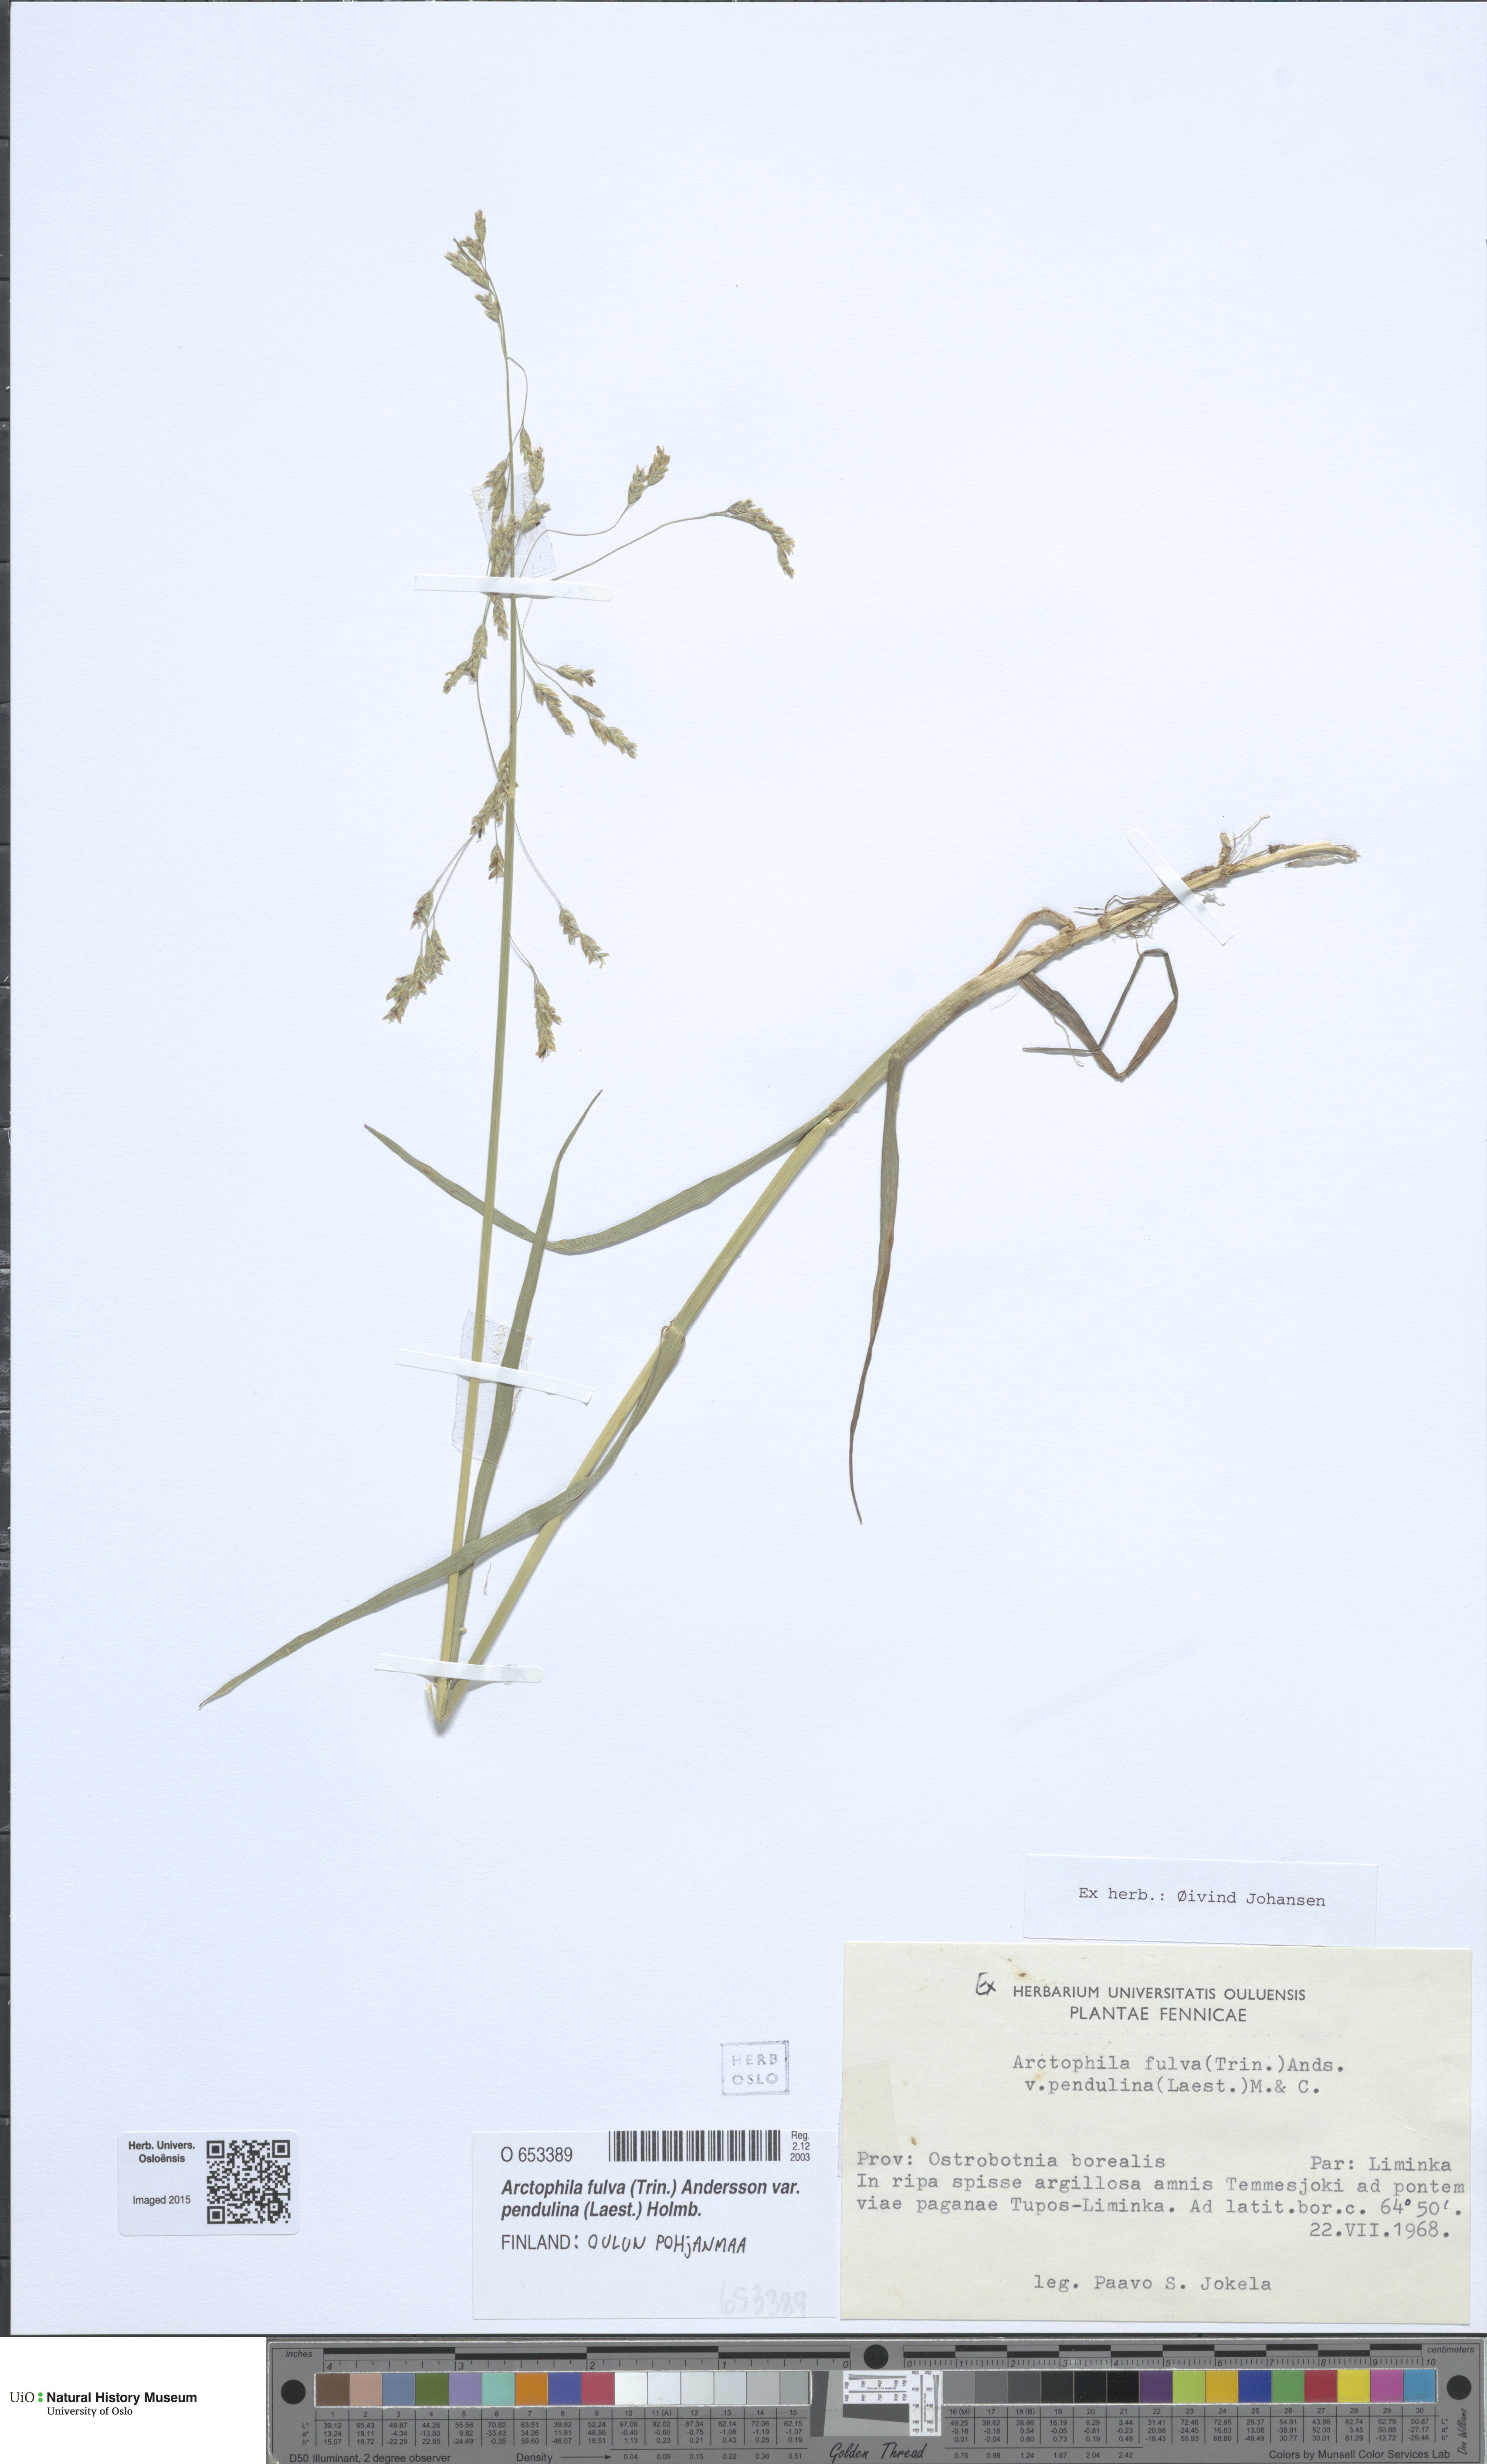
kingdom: Plantae
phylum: Tracheophyta
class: Liliopsida
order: Poales
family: Poaceae
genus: Dupontia
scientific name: Dupontia fulva
